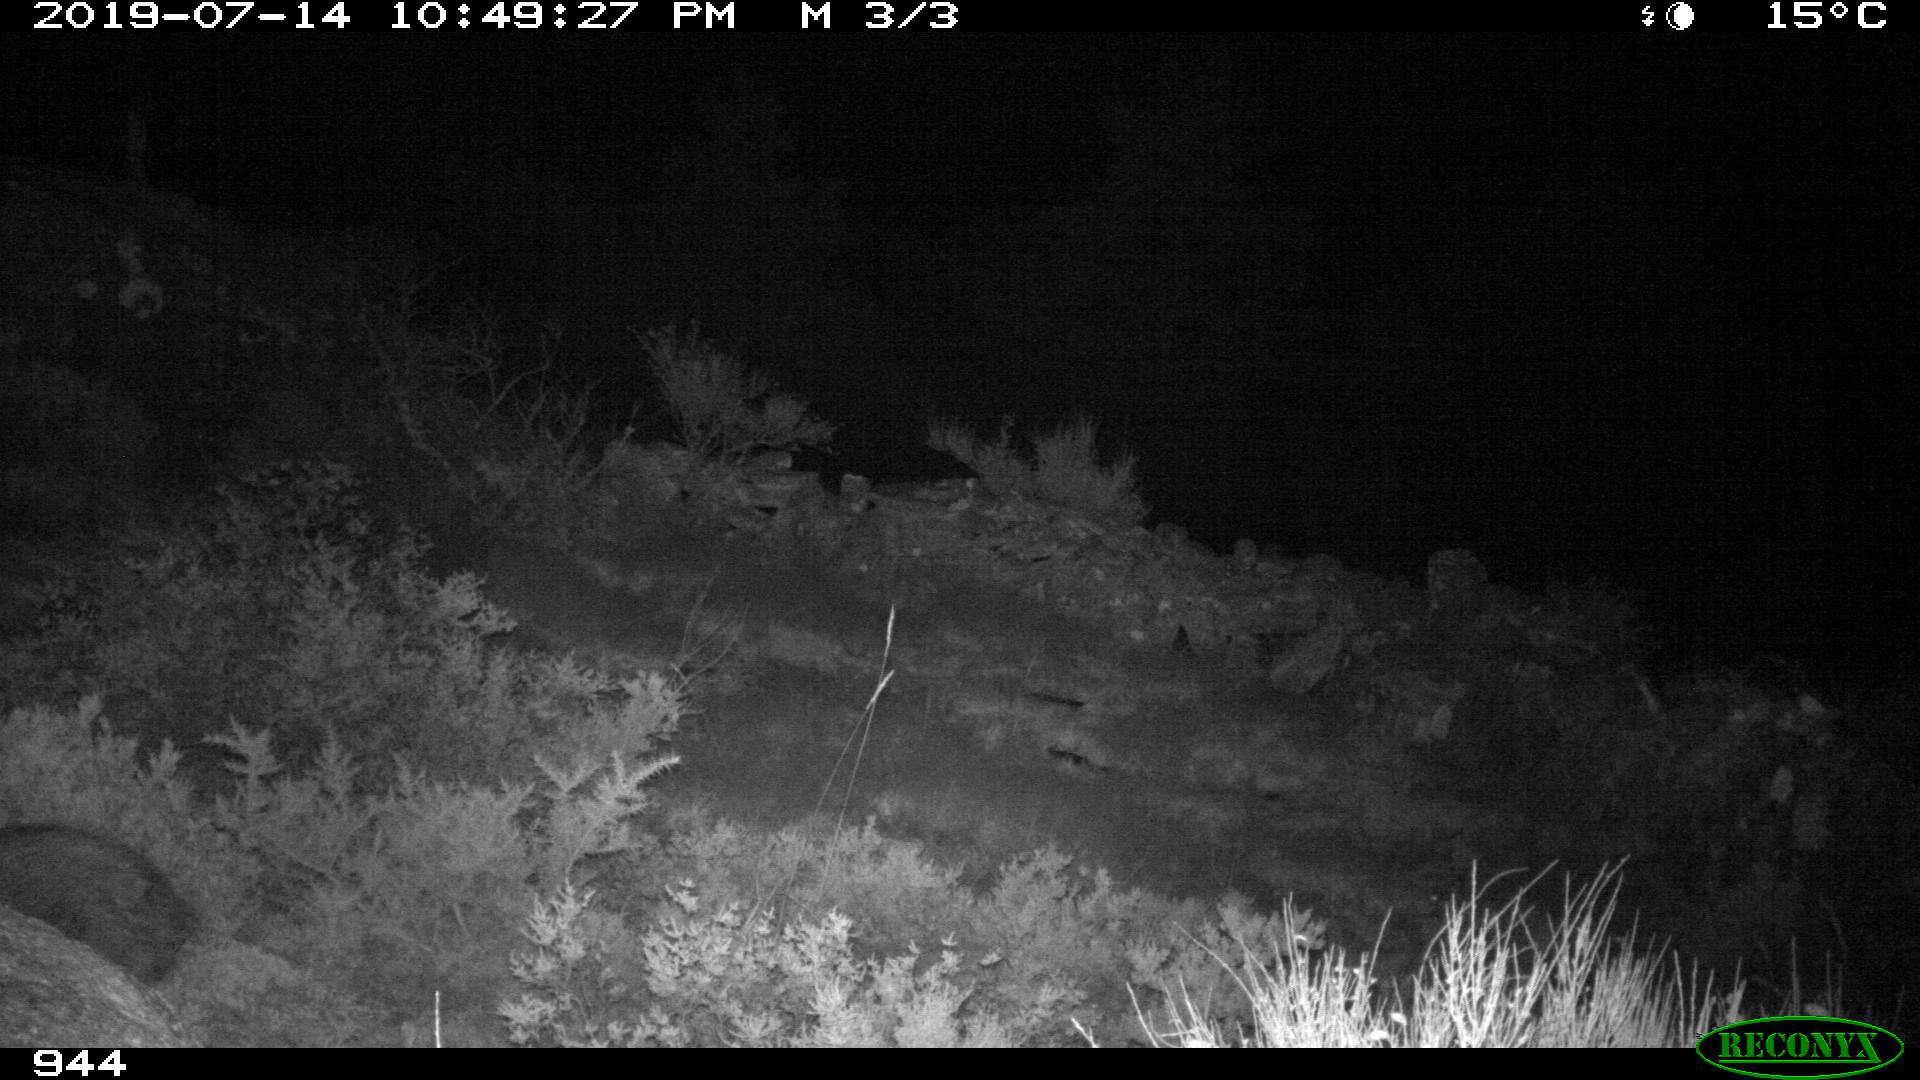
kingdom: Animalia
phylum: Chordata
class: Mammalia
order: Artiodactyla
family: Suidae
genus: Sus
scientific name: Sus scrofa
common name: Wild boar
